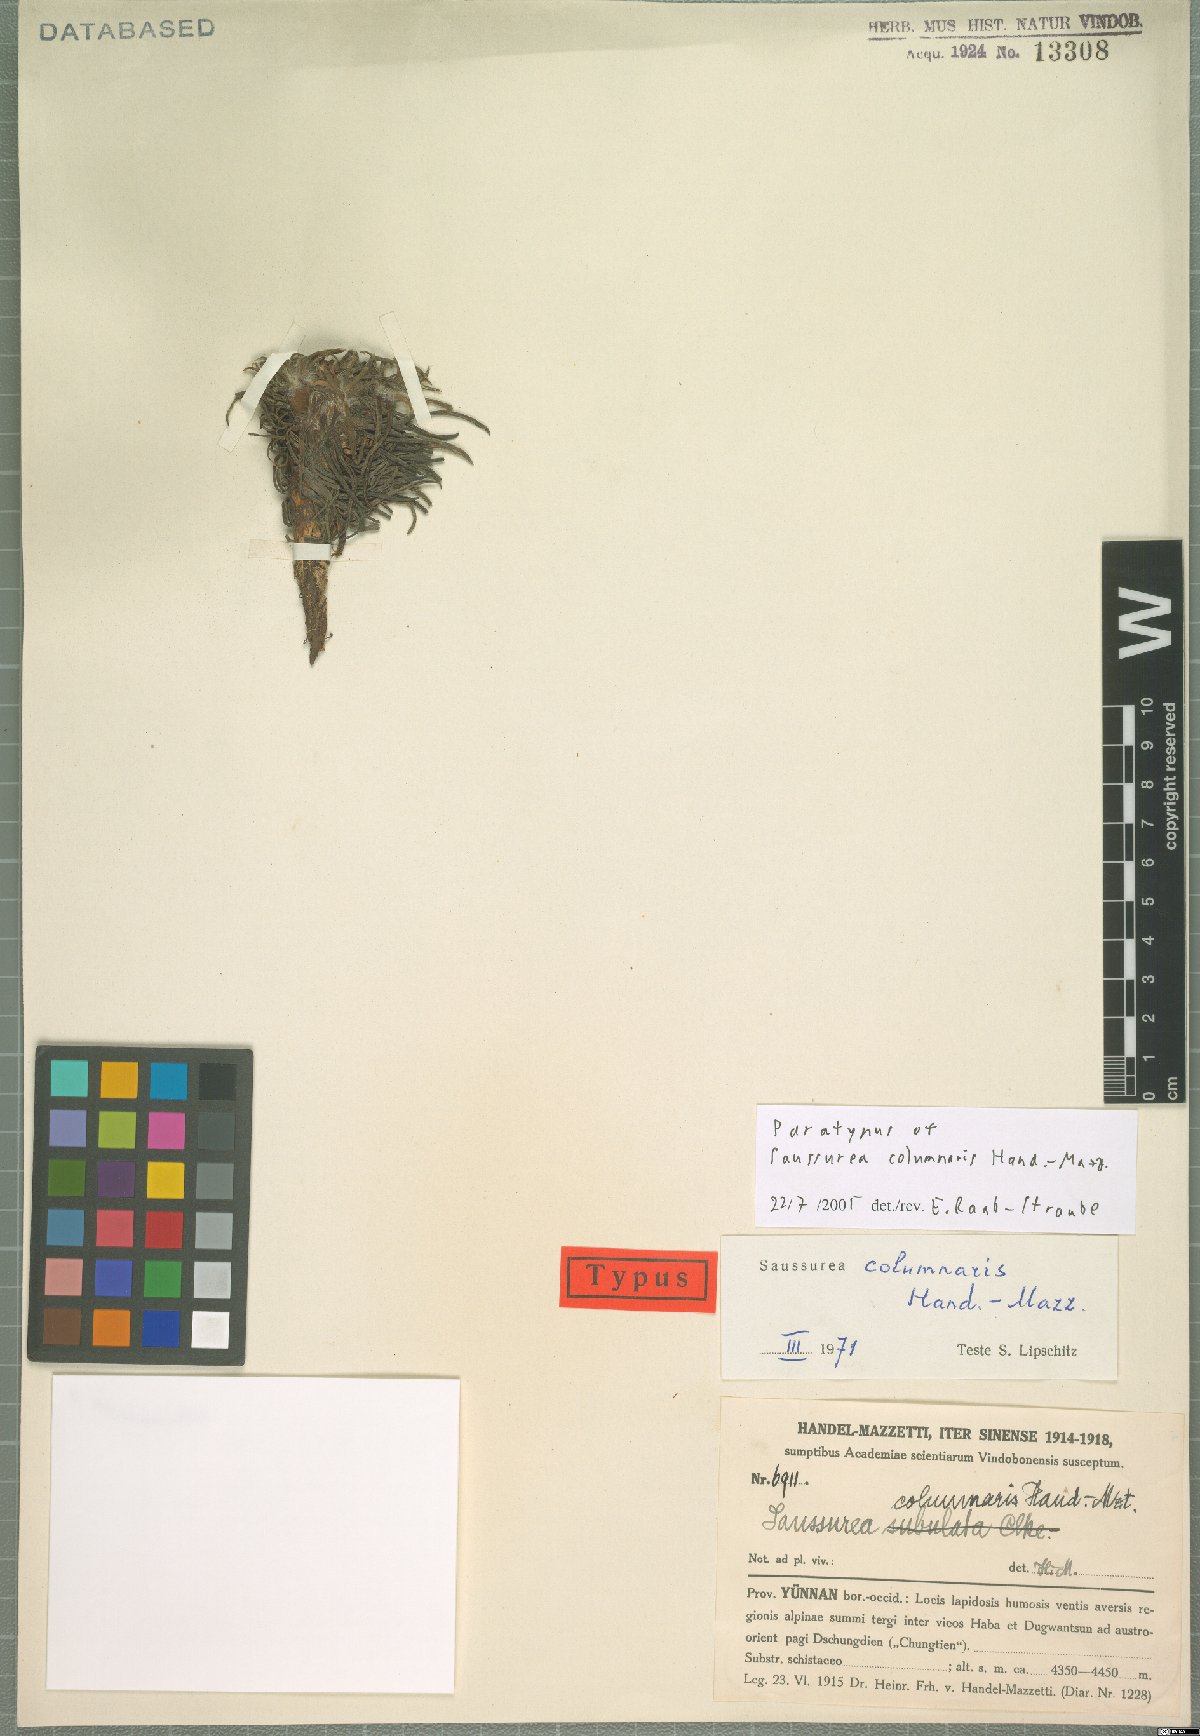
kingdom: Plantae
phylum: Tracheophyta
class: Magnoliopsida
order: Asterales
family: Asteraceae
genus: Saussurea
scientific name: Saussurea columnaris
